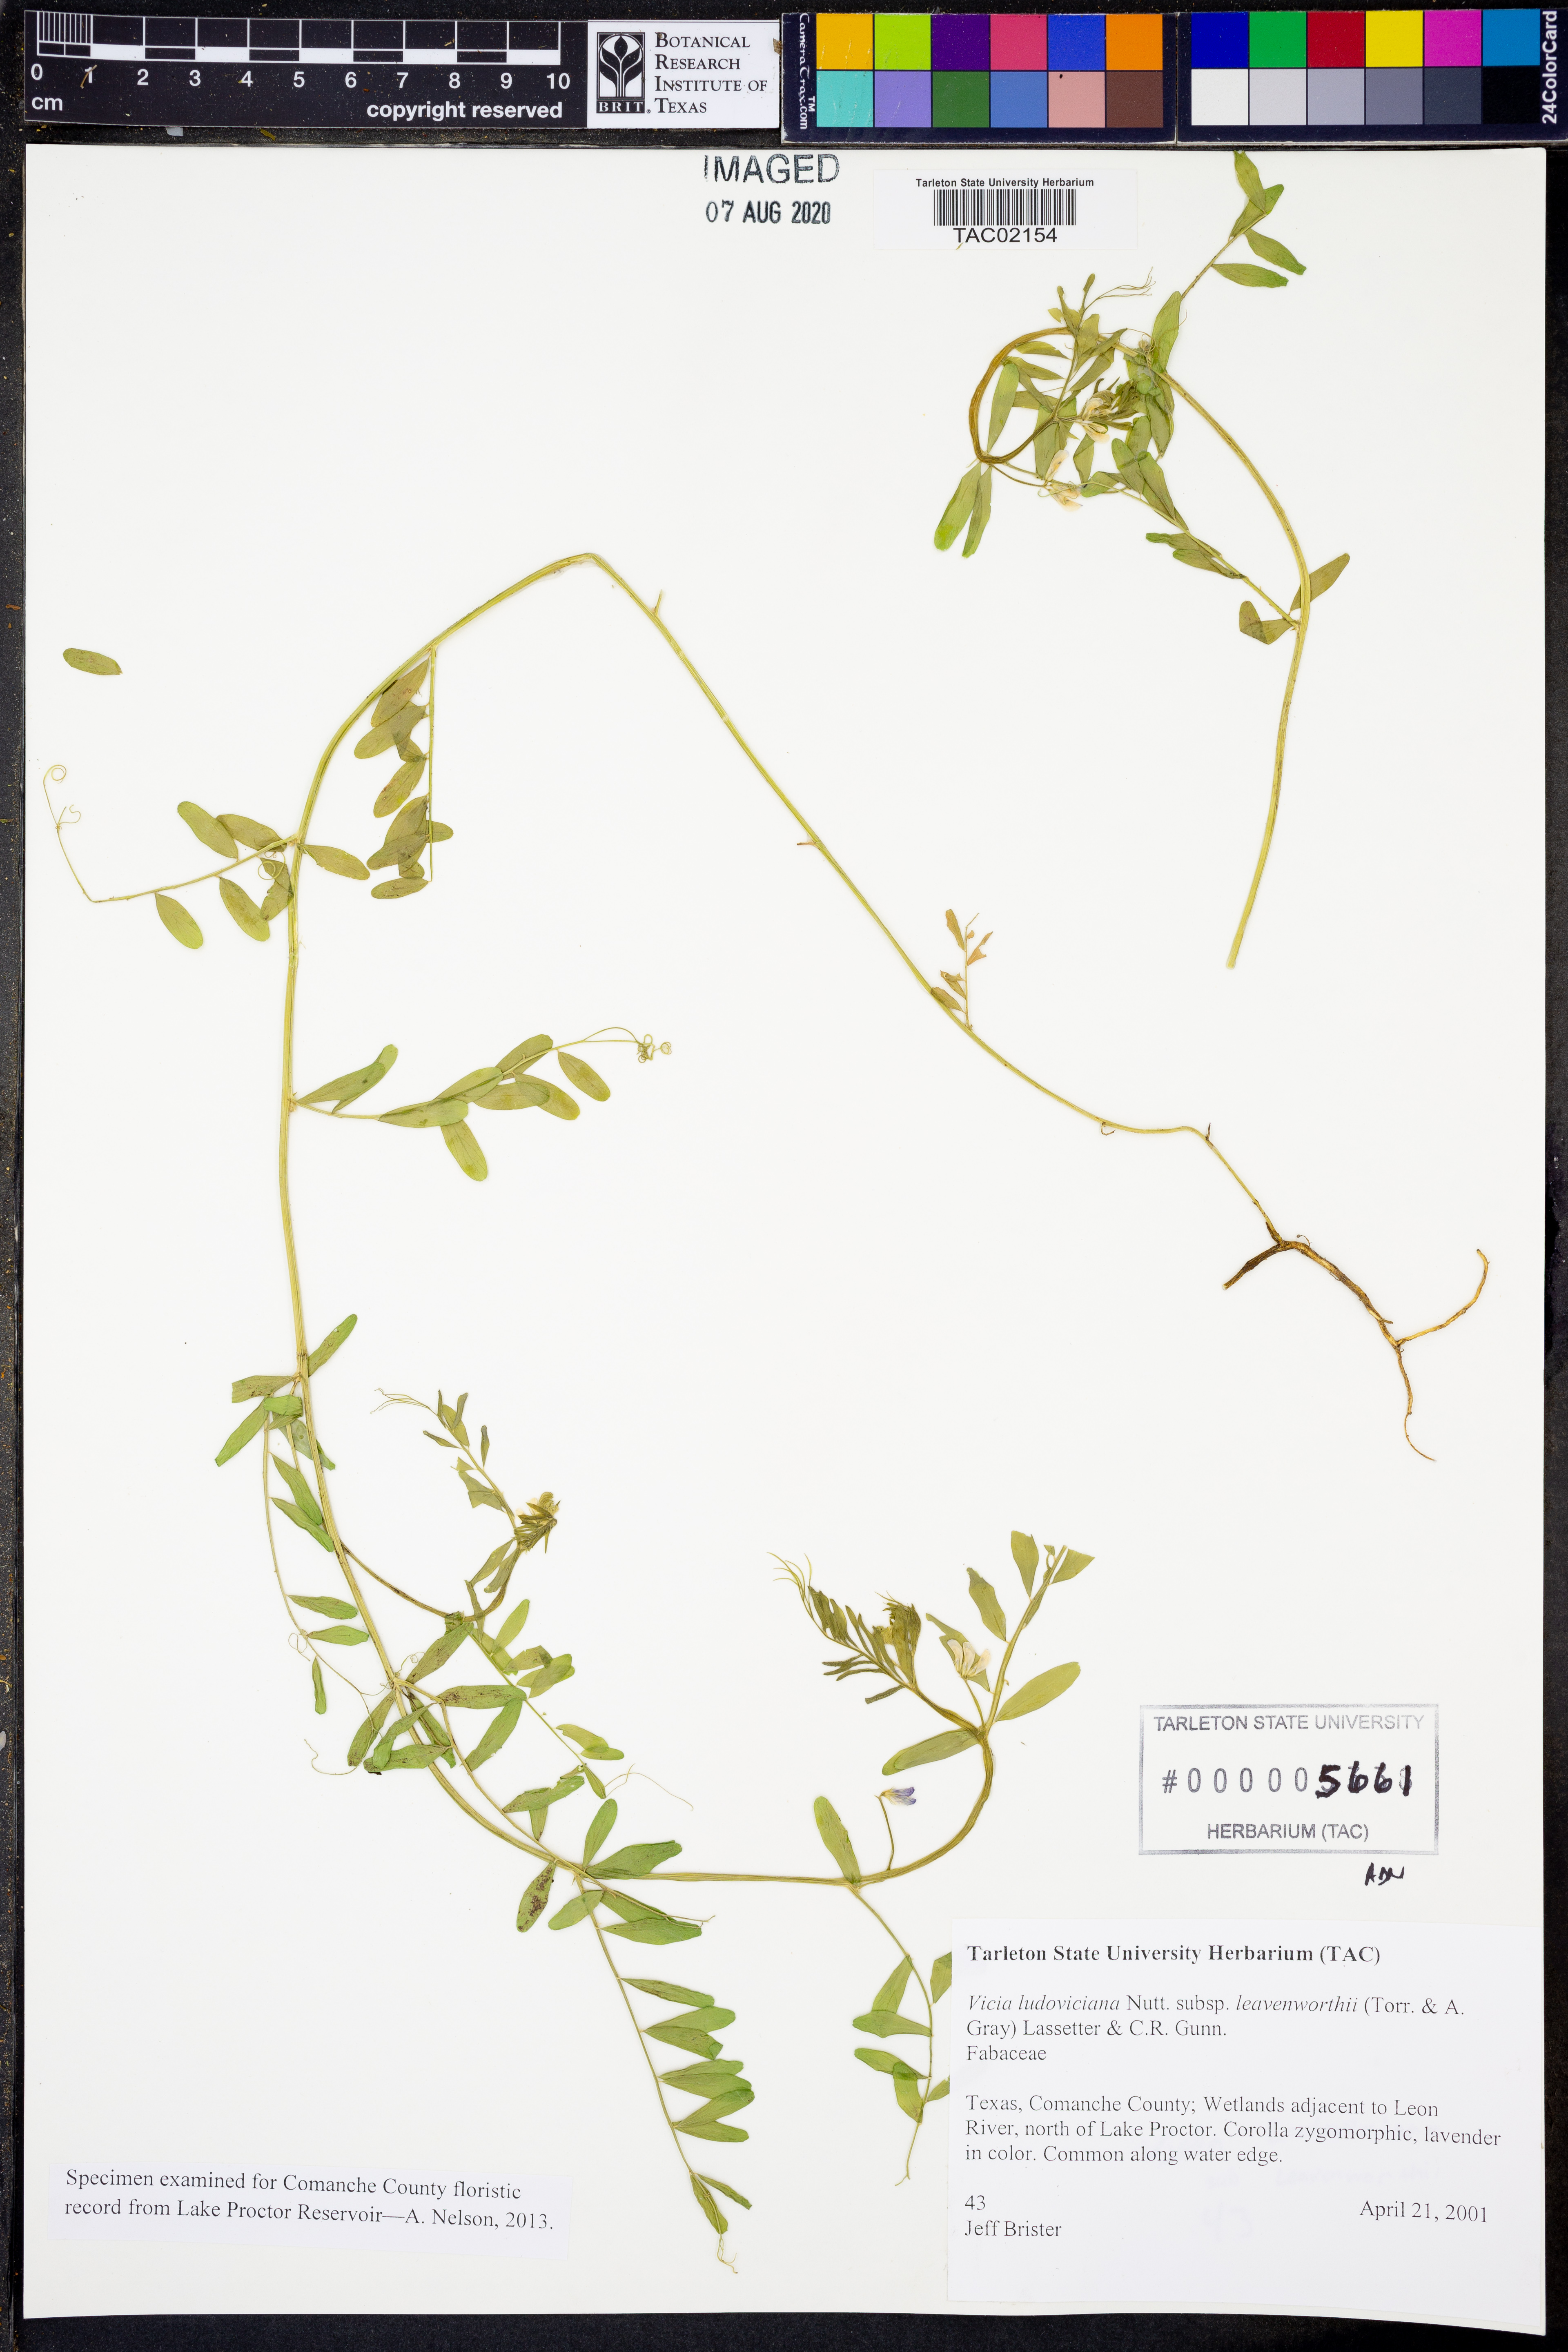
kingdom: Plantae
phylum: Tracheophyta
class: Magnoliopsida
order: Fabales
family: Fabaceae
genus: Vicia
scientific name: Vicia ludoviciana
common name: Louisiana vetch
